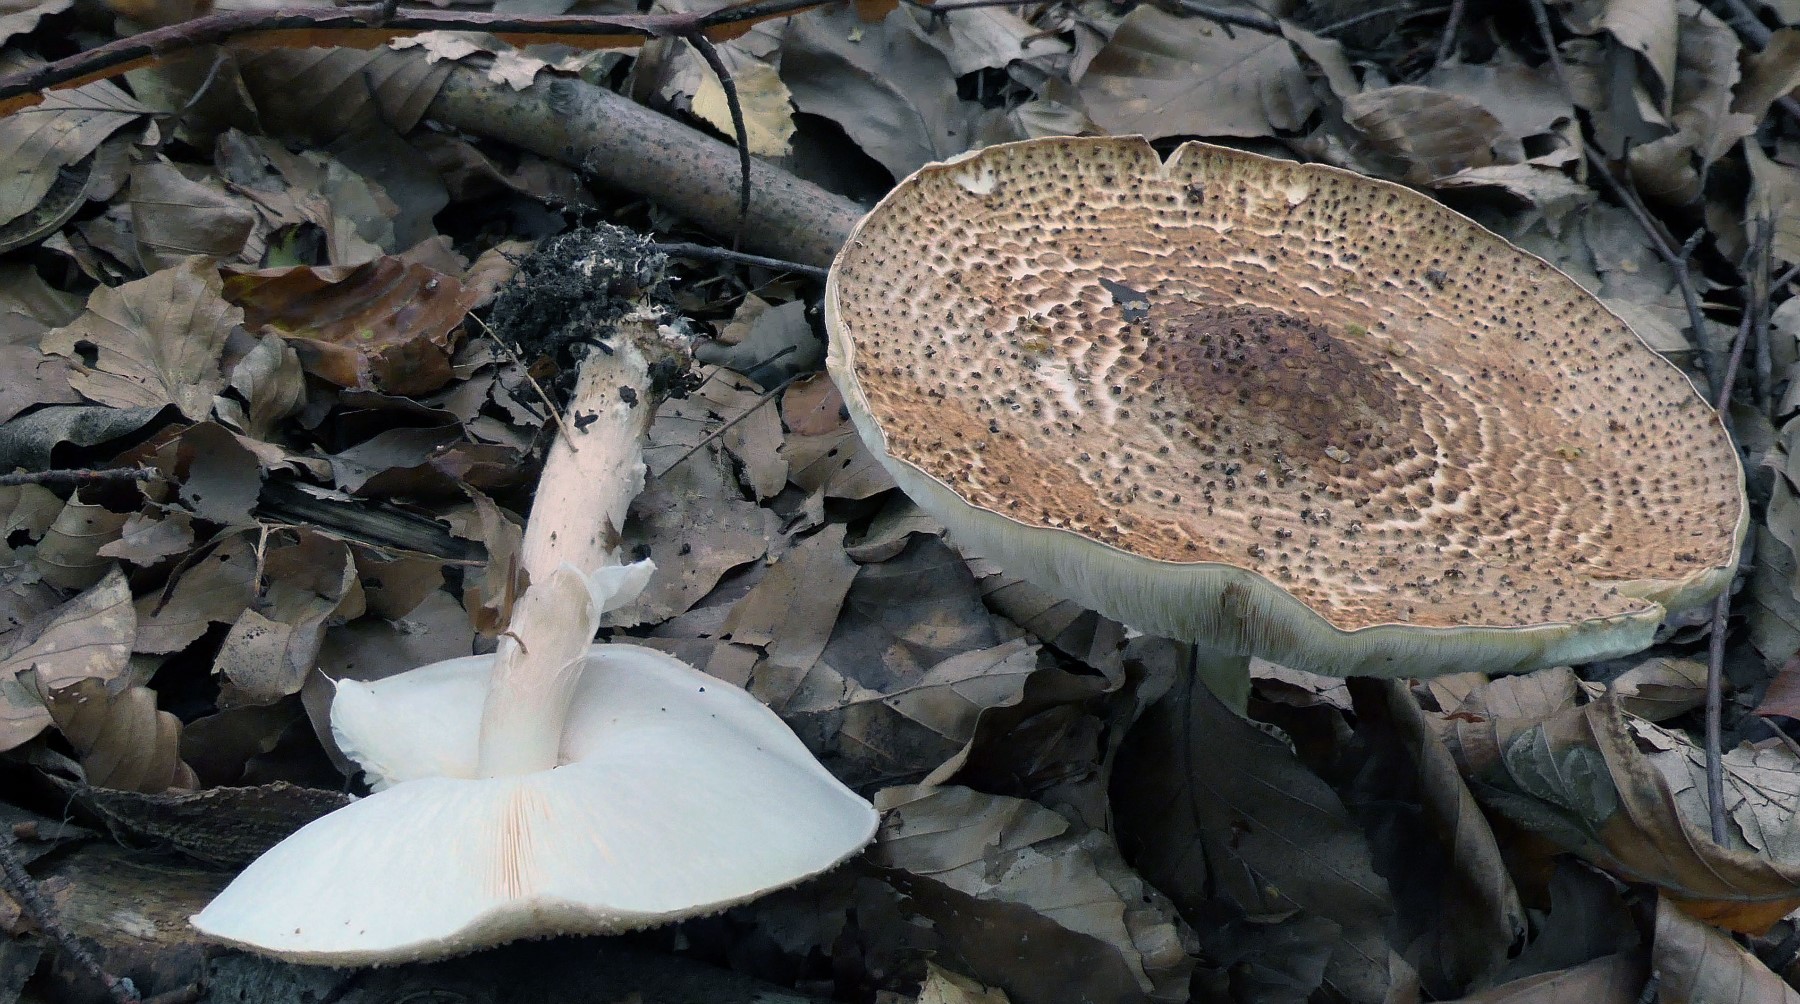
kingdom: Fungi
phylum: Basidiomycota
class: Agaricomycetes
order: Agaricales
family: Agaricaceae
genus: Echinoderma
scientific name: Echinoderma asperum
